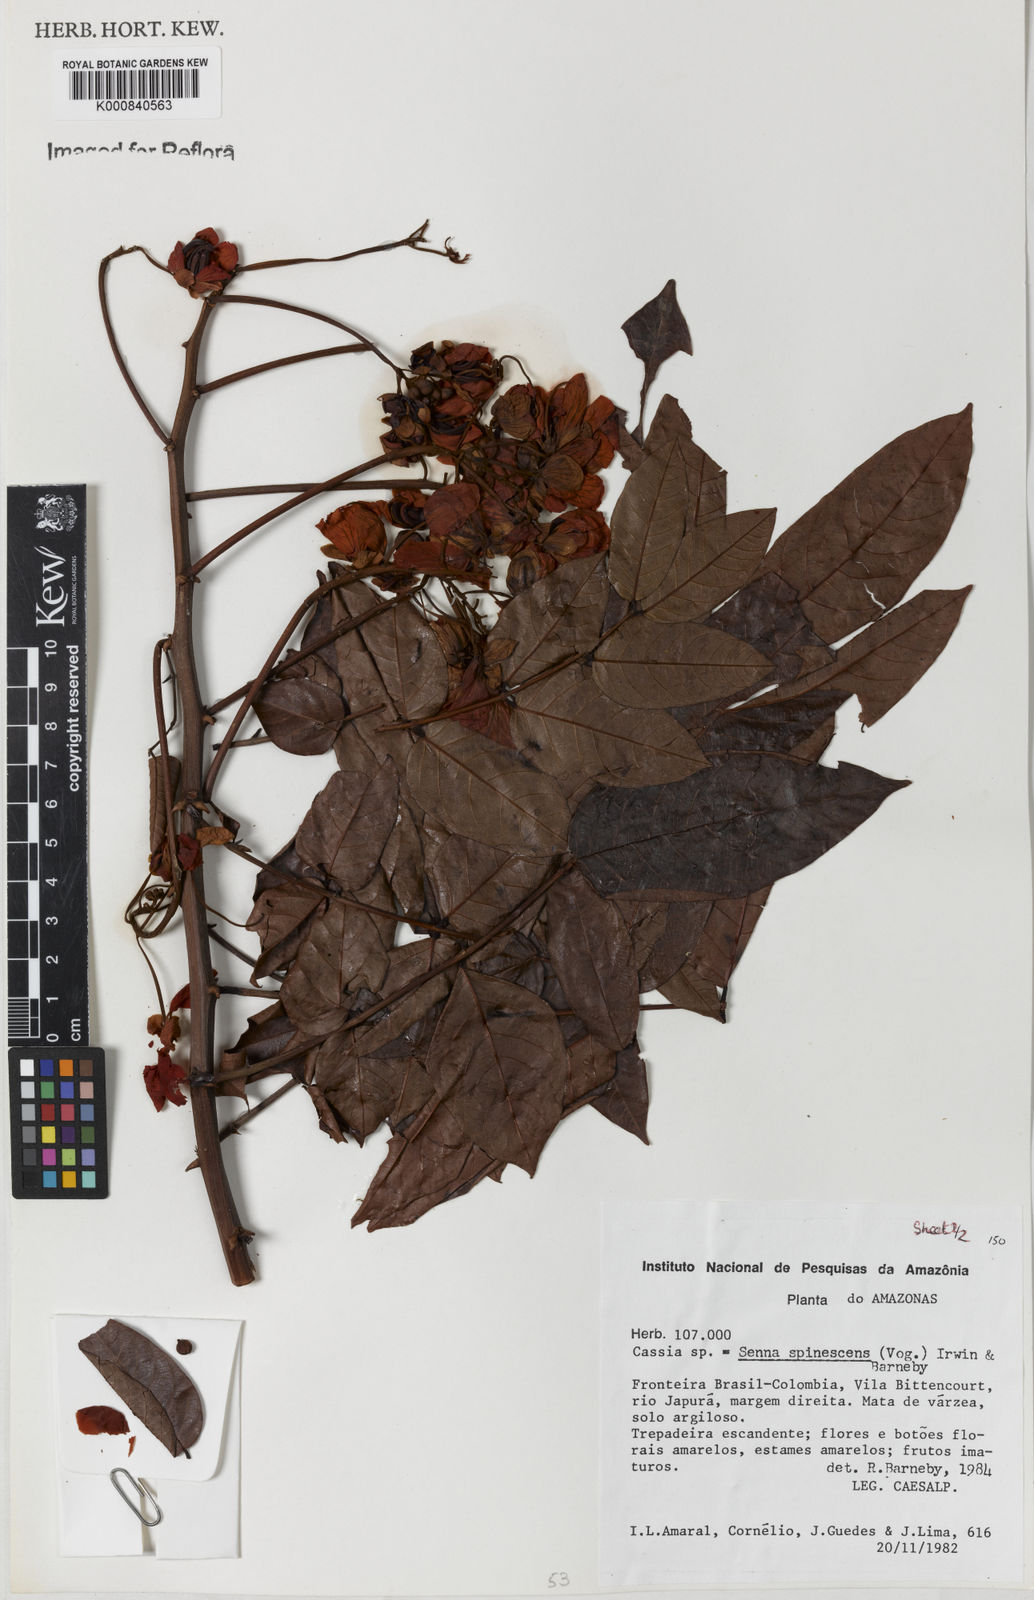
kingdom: Plantae
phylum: Tracheophyta
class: Magnoliopsida
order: Fabales
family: Fabaceae
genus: Senna
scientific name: Senna spinescens
